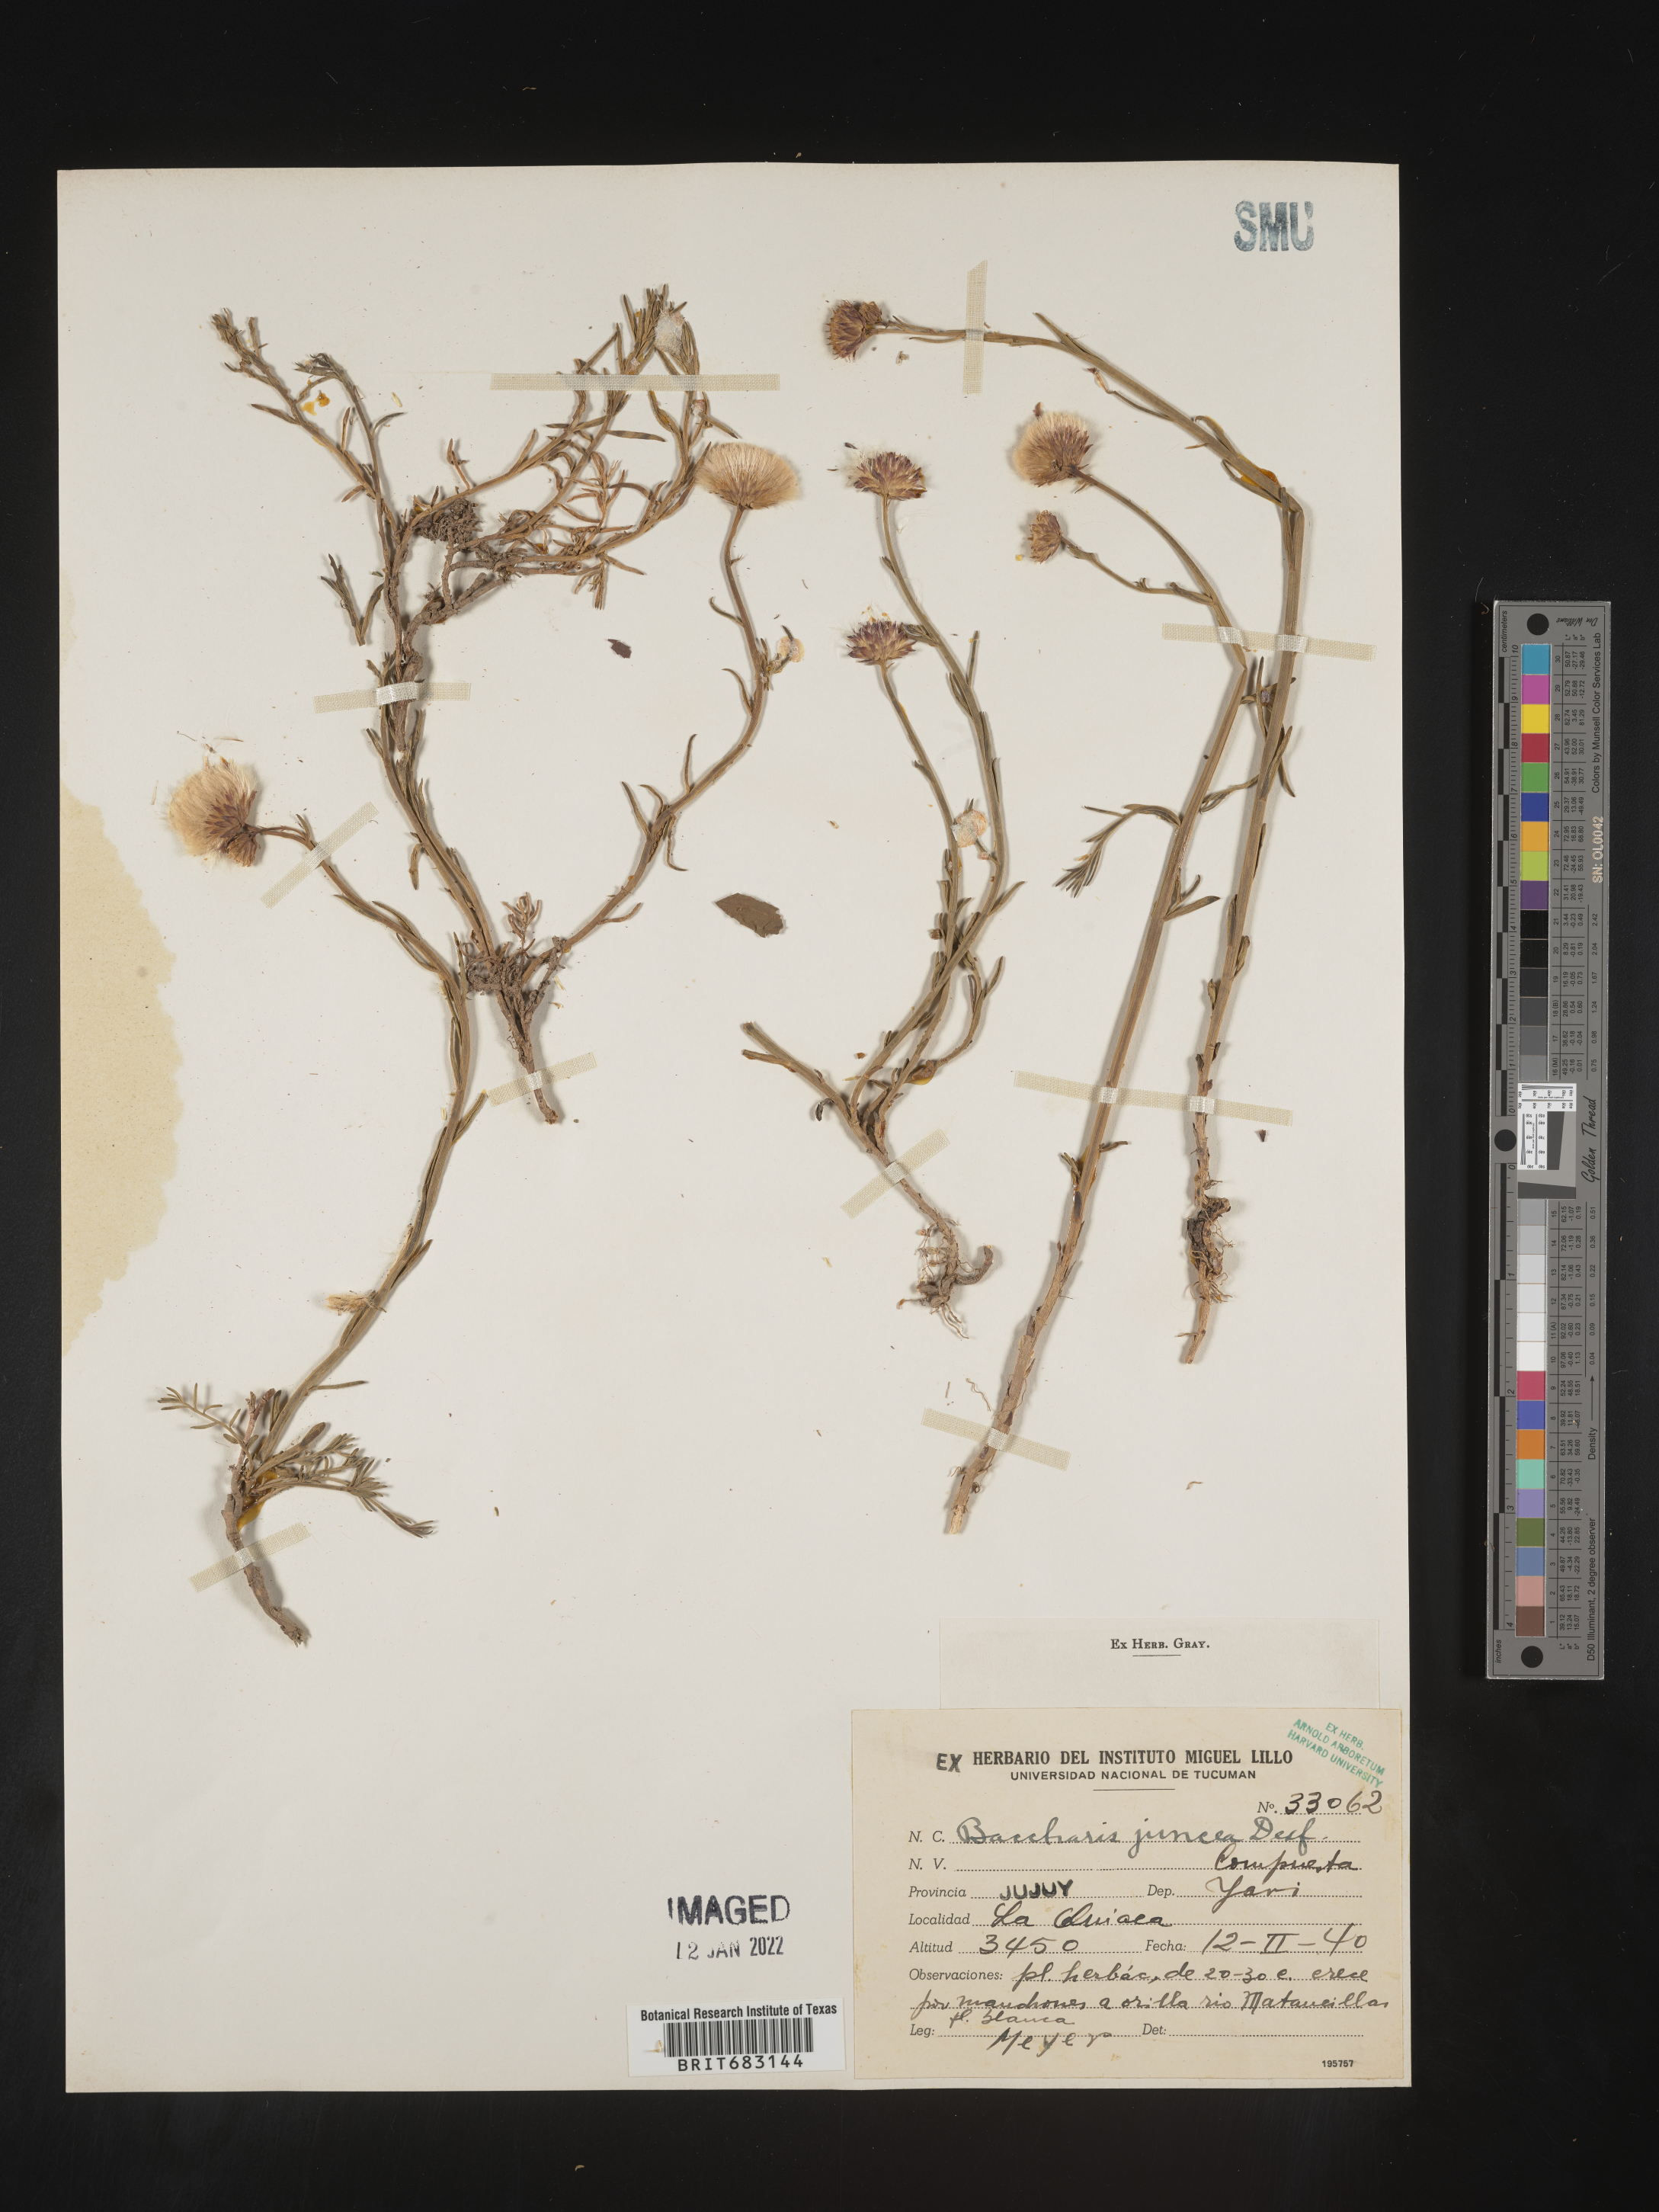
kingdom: Plantae
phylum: Tracheophyta
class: Magnoliopsida
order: Asterales
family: Asteraceae
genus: Baccharis
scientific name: Baccharis
